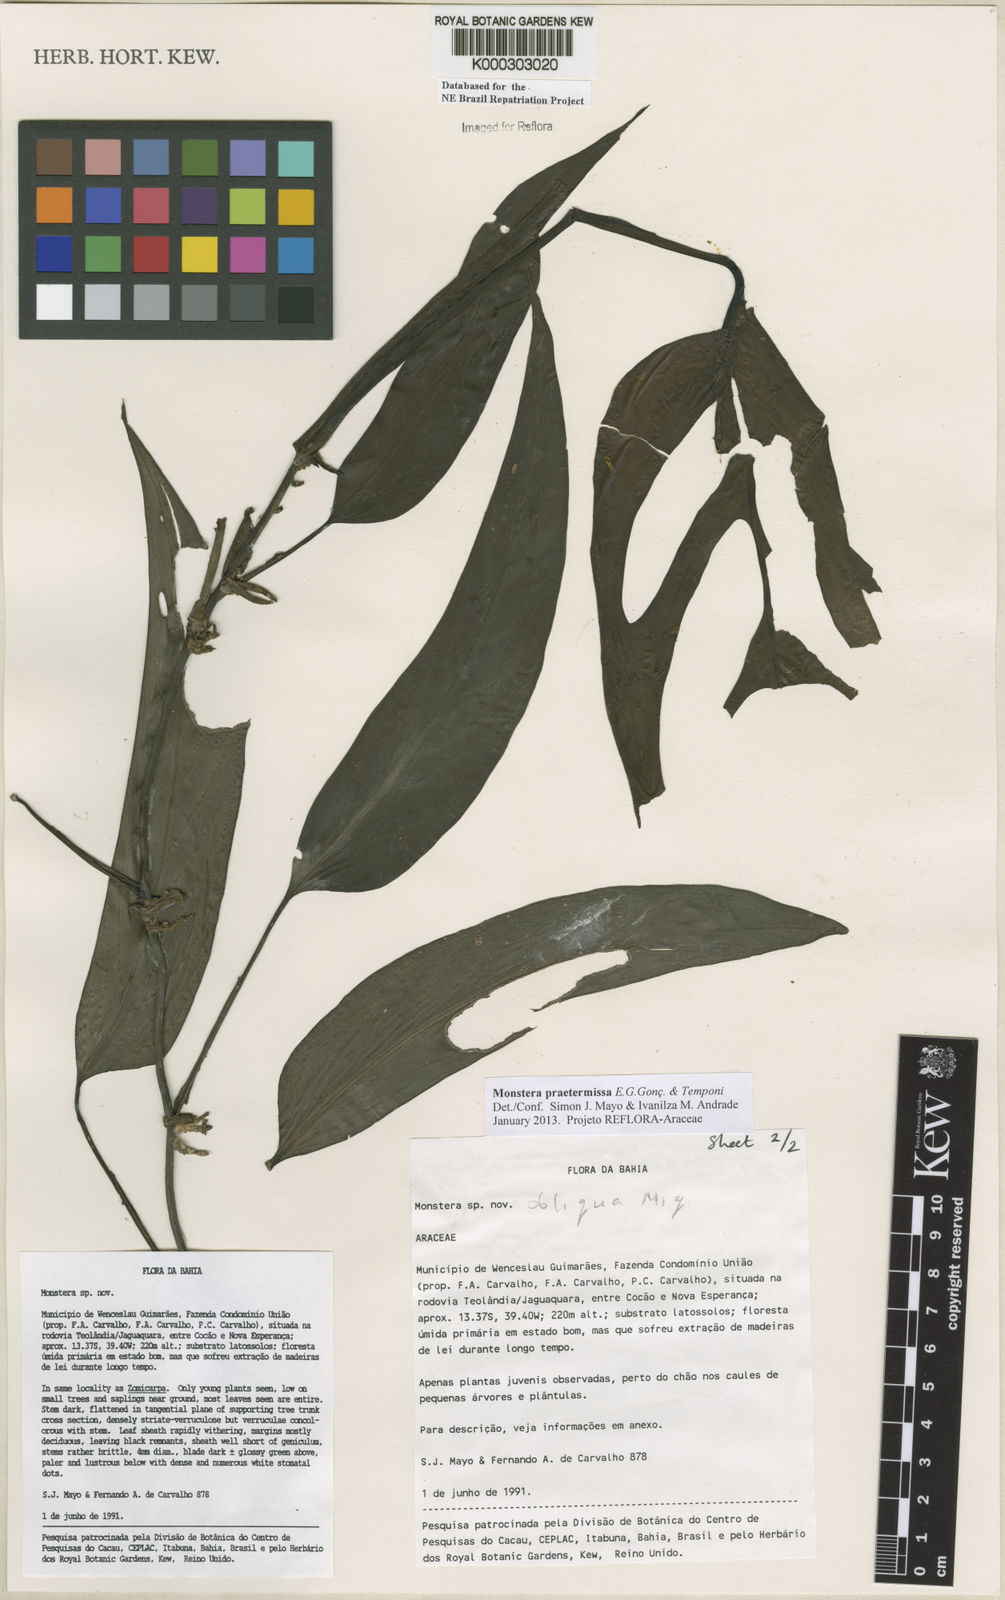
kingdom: Plantae
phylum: Tracheophyta
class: Liliopsida
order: Alismatales
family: Araceae
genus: Monstera
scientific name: Monstera obliqua
